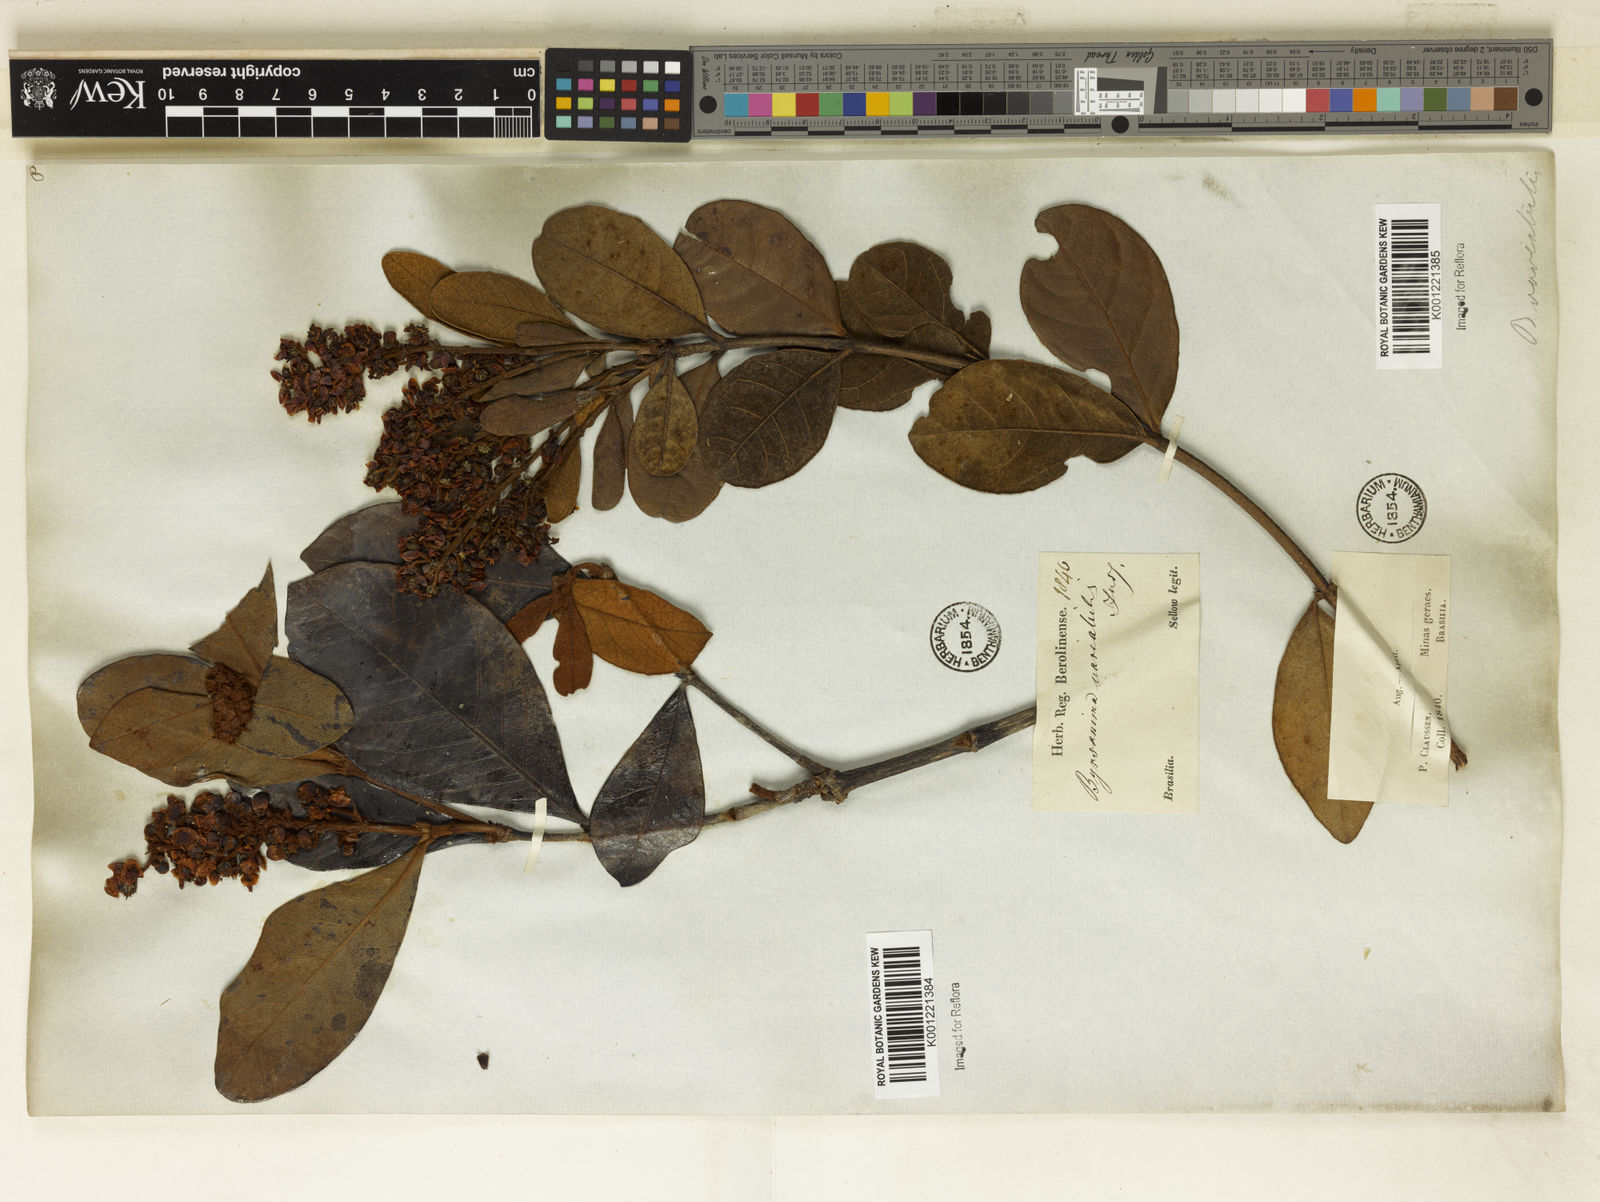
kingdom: Plantae
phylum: Tracheophyta
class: Magnoliopsida
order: Malpighiales
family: Malpighiaceae
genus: Byrsonima
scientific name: Byrsonima variabilis
